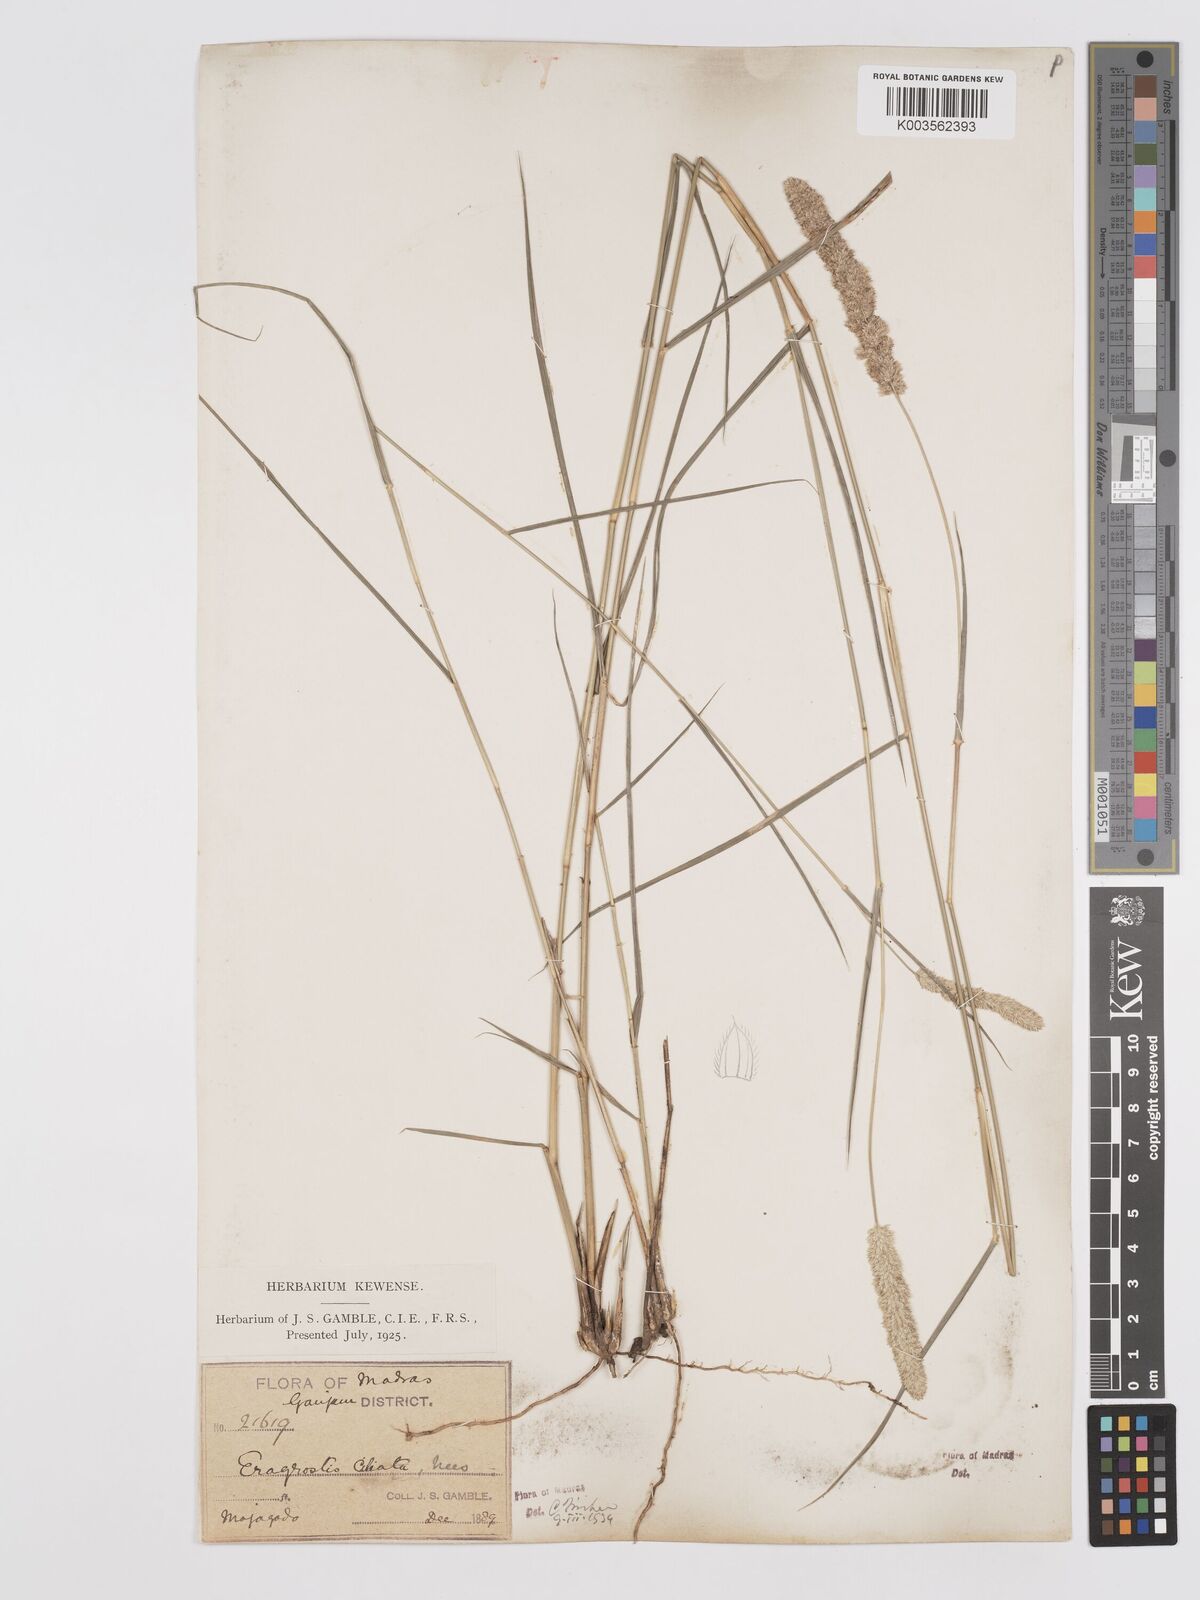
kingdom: Plantae
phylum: Tracheophyta
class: Liliopsida
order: Poales
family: Poaceae
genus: Eragrostis
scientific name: Eragrostis ciliata
